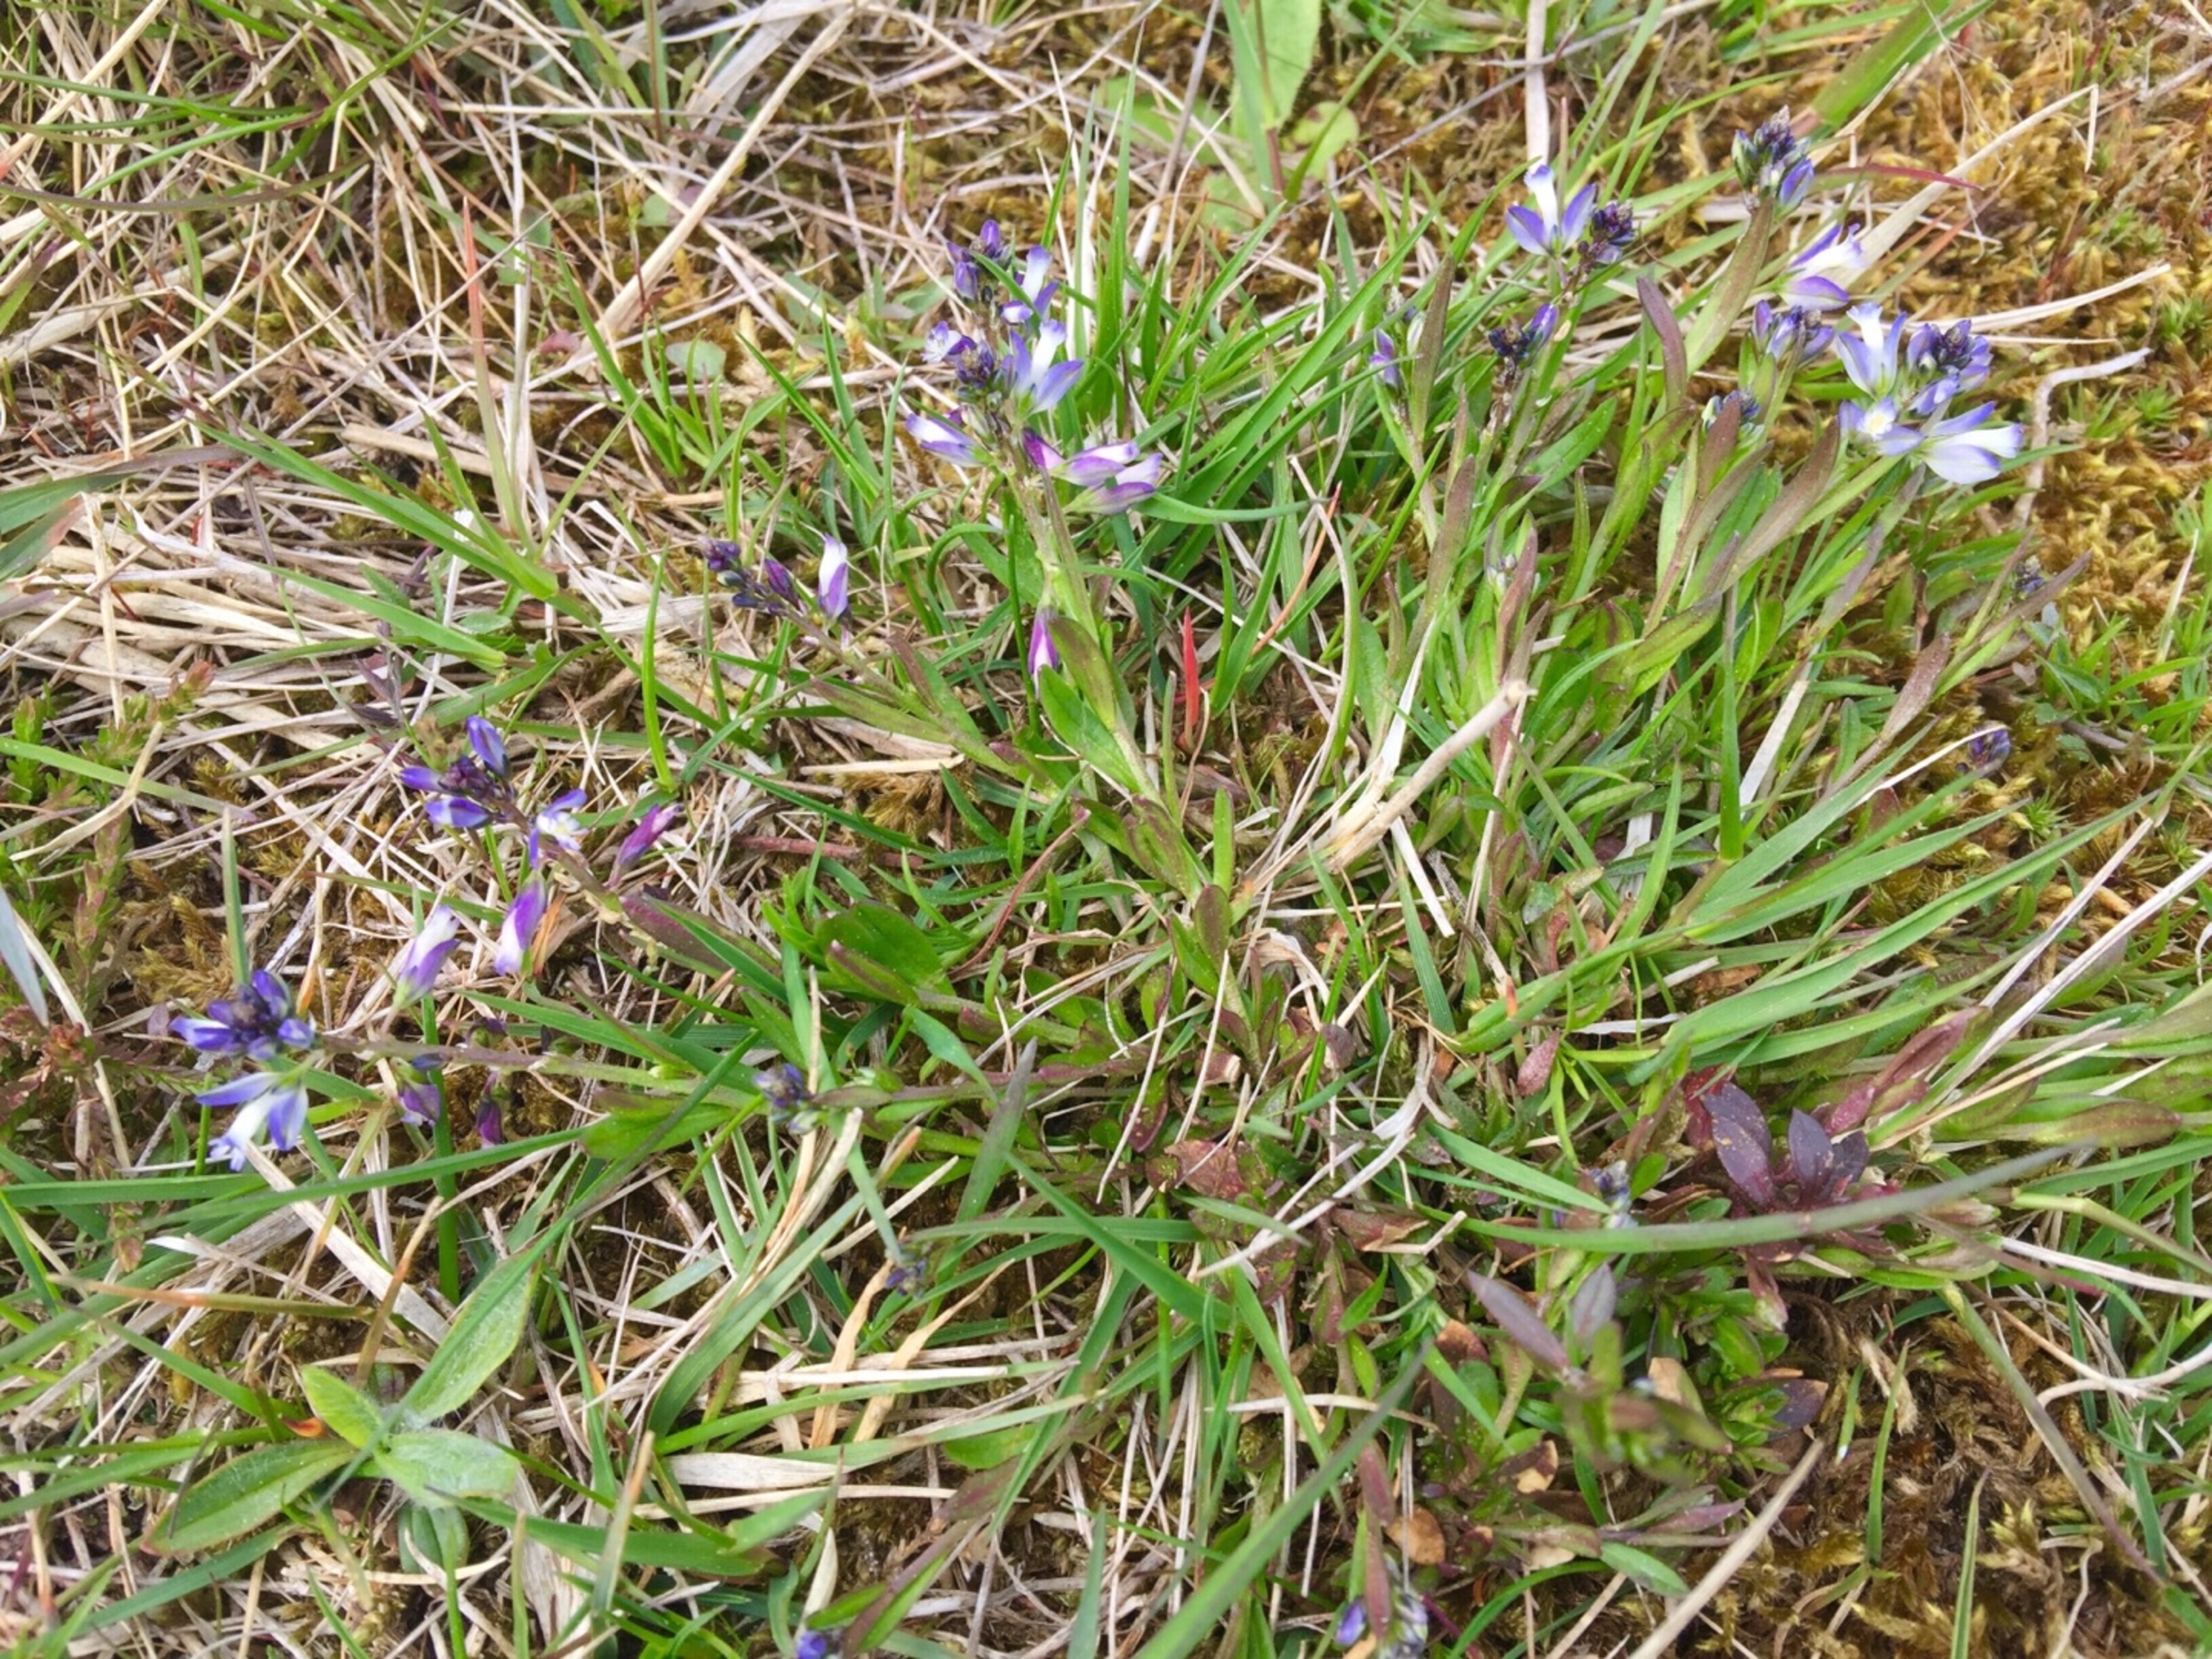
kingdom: Plantae
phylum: Tracheophyta
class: Magnoliopsida
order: Fabales
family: Polygalaceae
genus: Polygala
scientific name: Polygala vulgaris
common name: Almindelig mælkeurt
